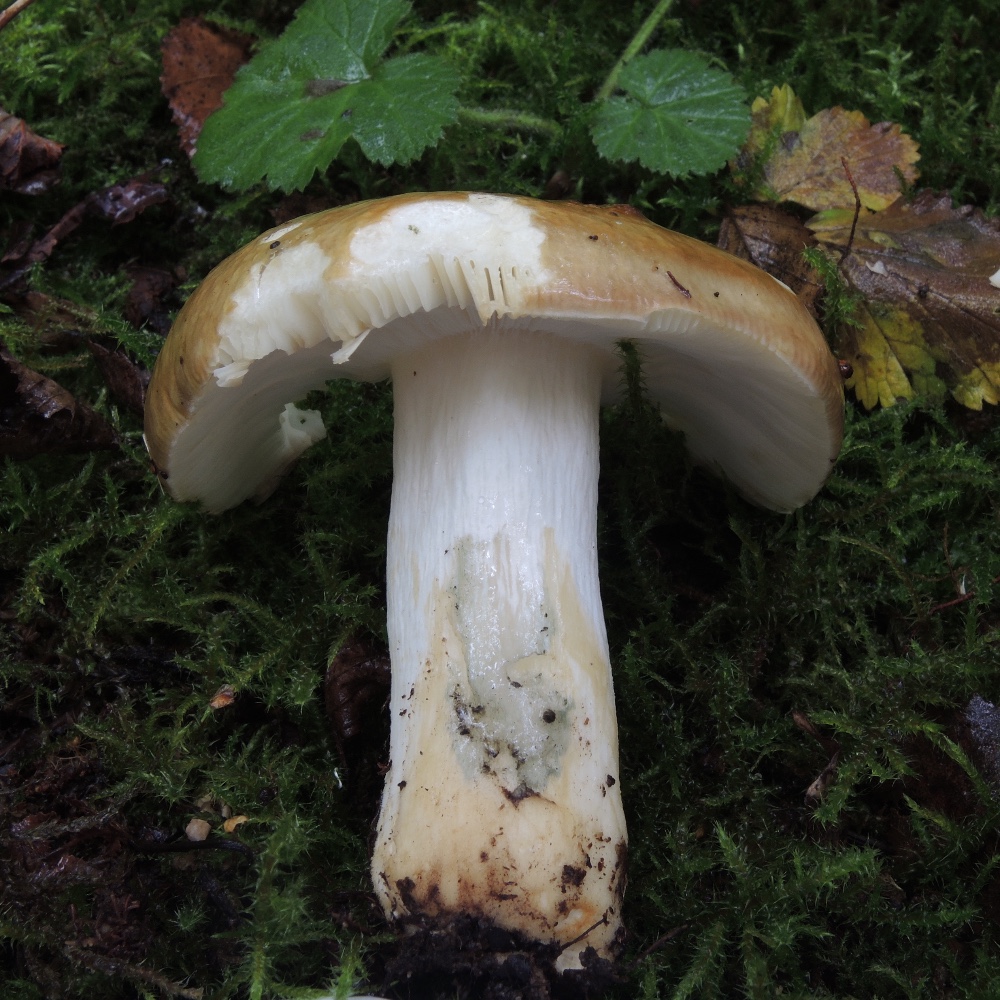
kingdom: Fungi
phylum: Basidiomycota
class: Agaricomycetes
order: Russulales
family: Russulaceae
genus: Russula
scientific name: Russula clavipes
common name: olivengrøn skørhat
